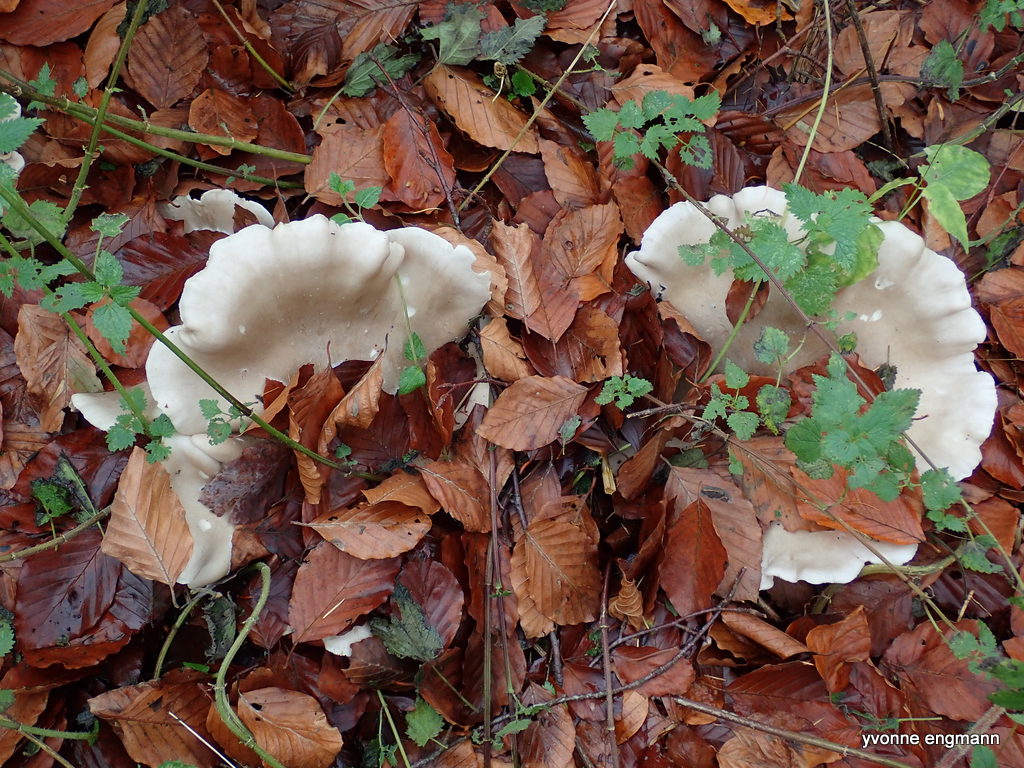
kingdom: Fungi
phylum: Basidiomycota
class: Agaricomycetes
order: Agaricales
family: Tricholomataceae
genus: Clitocybe
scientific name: Clitocybe nebularis
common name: tåge-tragthat
